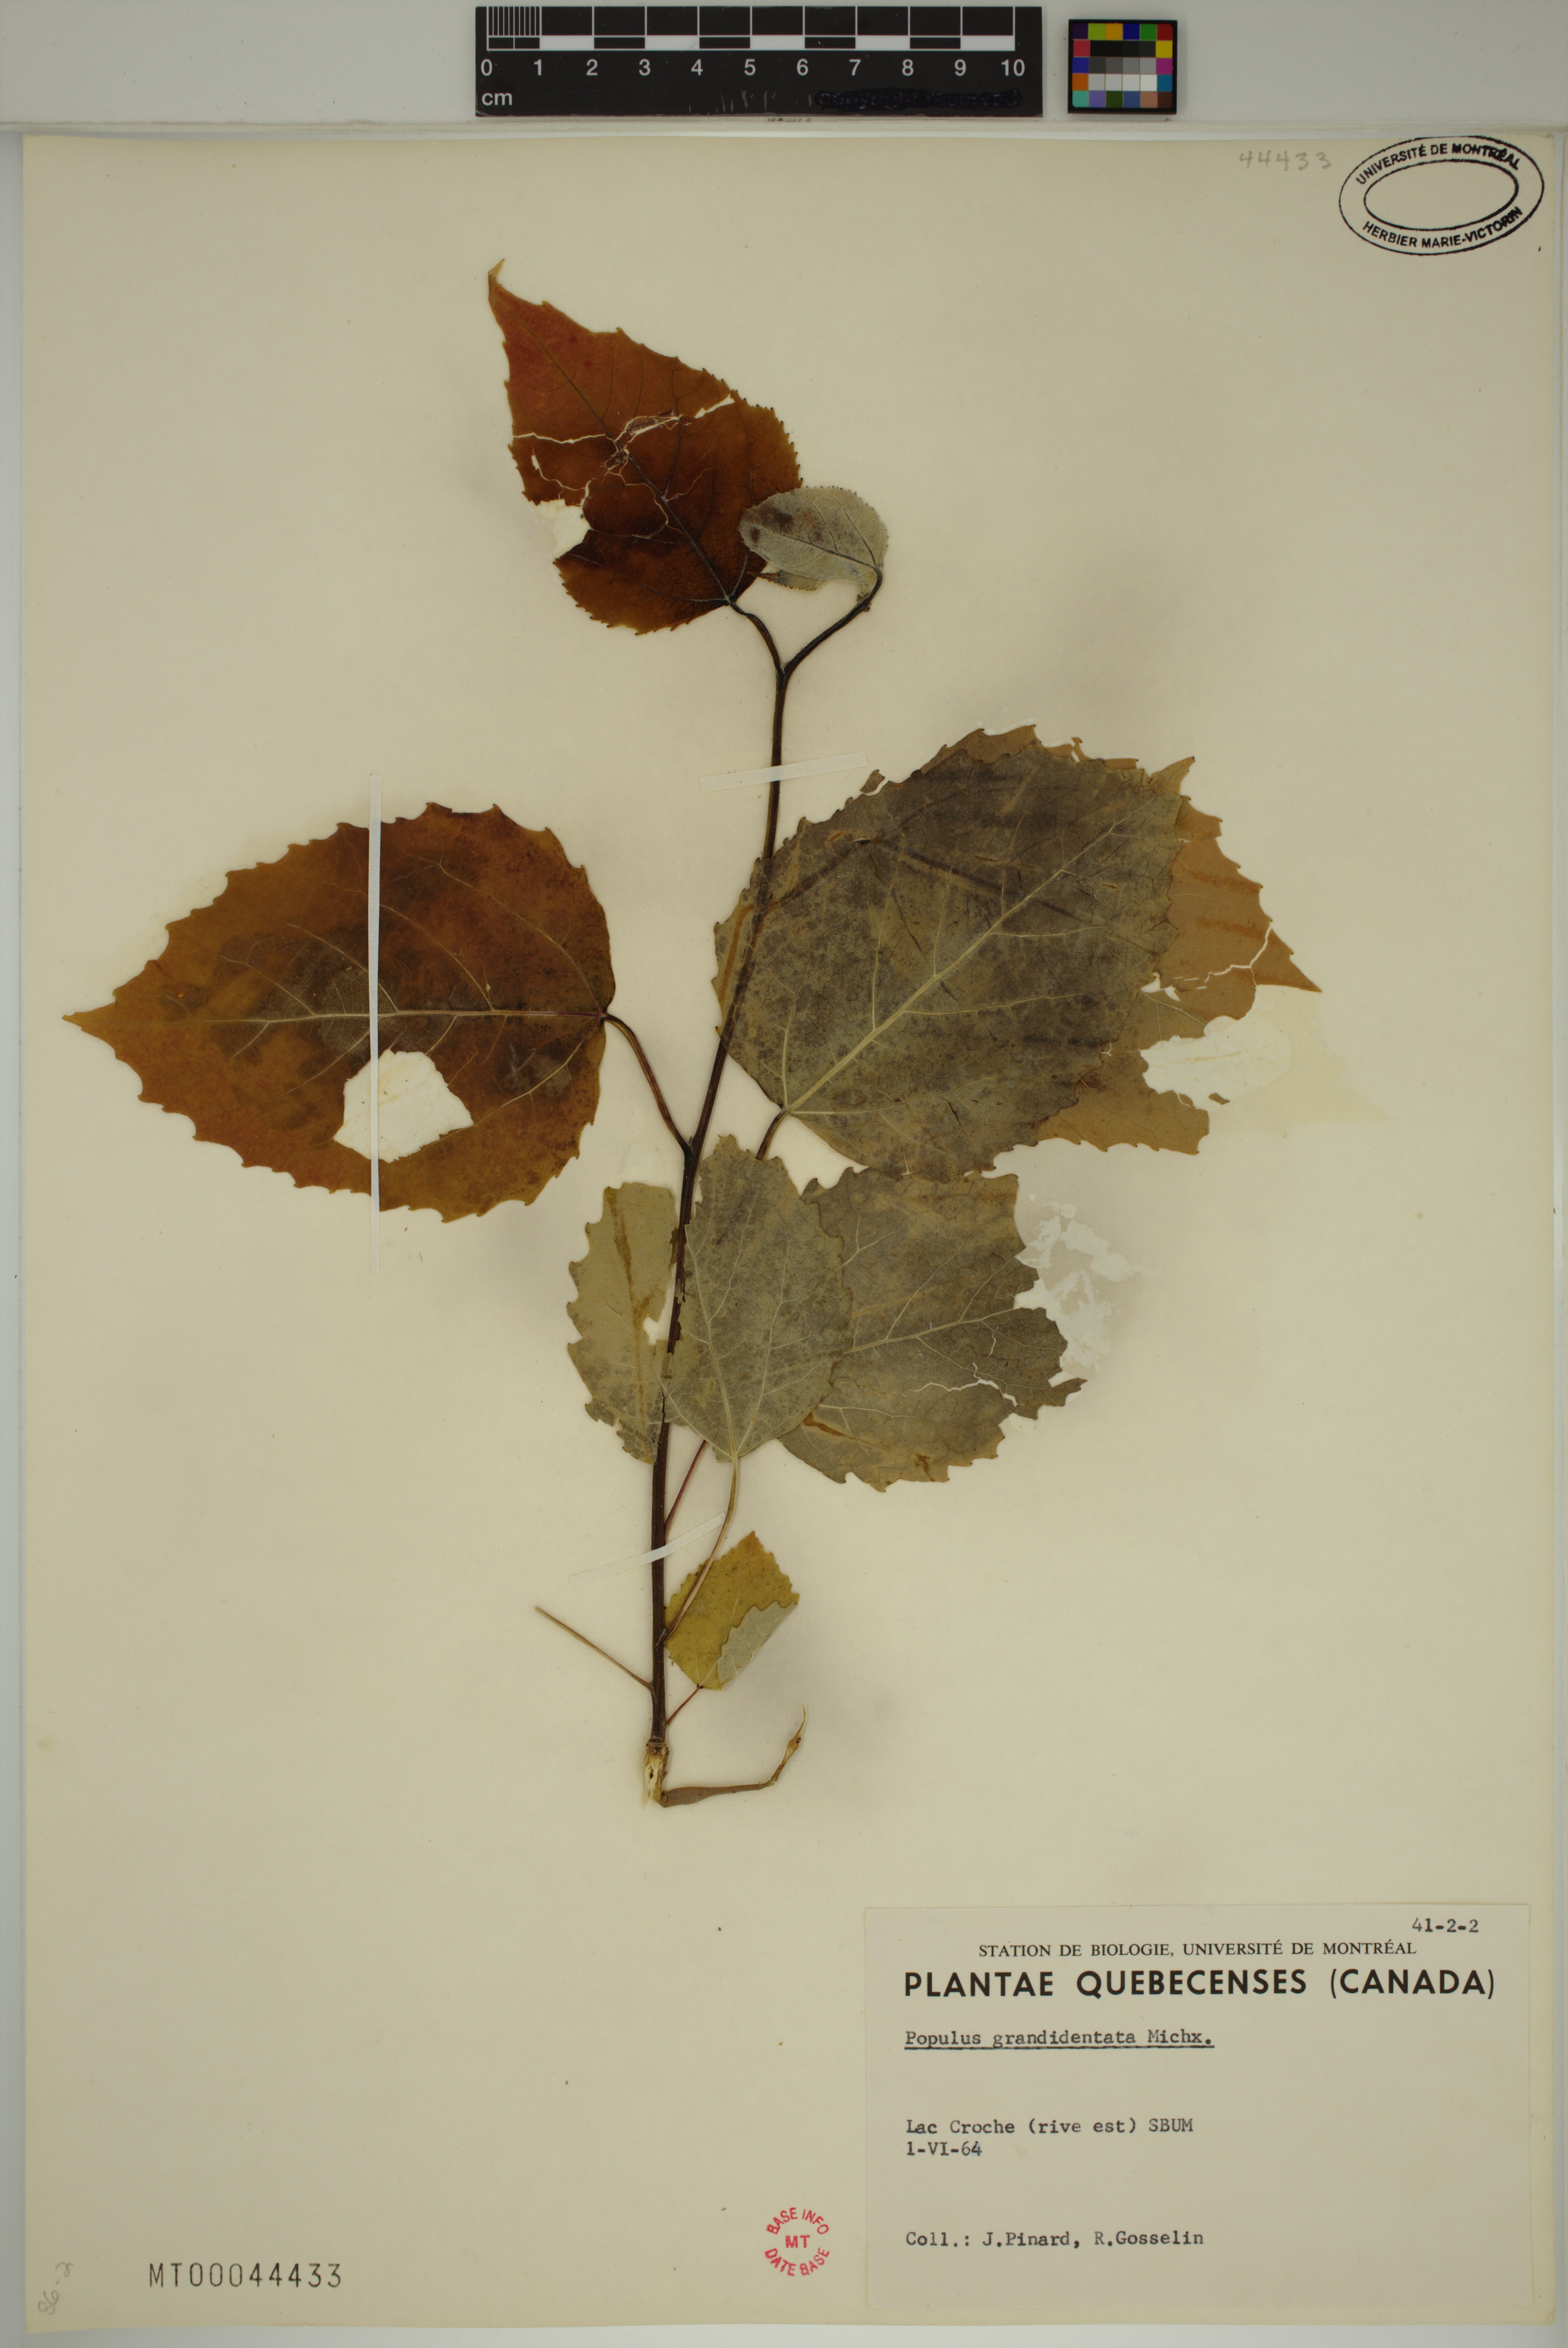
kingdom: Plantae
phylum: Tracheophyta
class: Magnoliopsida
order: Malpighiales
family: Salicaceae
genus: Populus
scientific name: Populus grandidentata
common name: Bigtooth aspen
